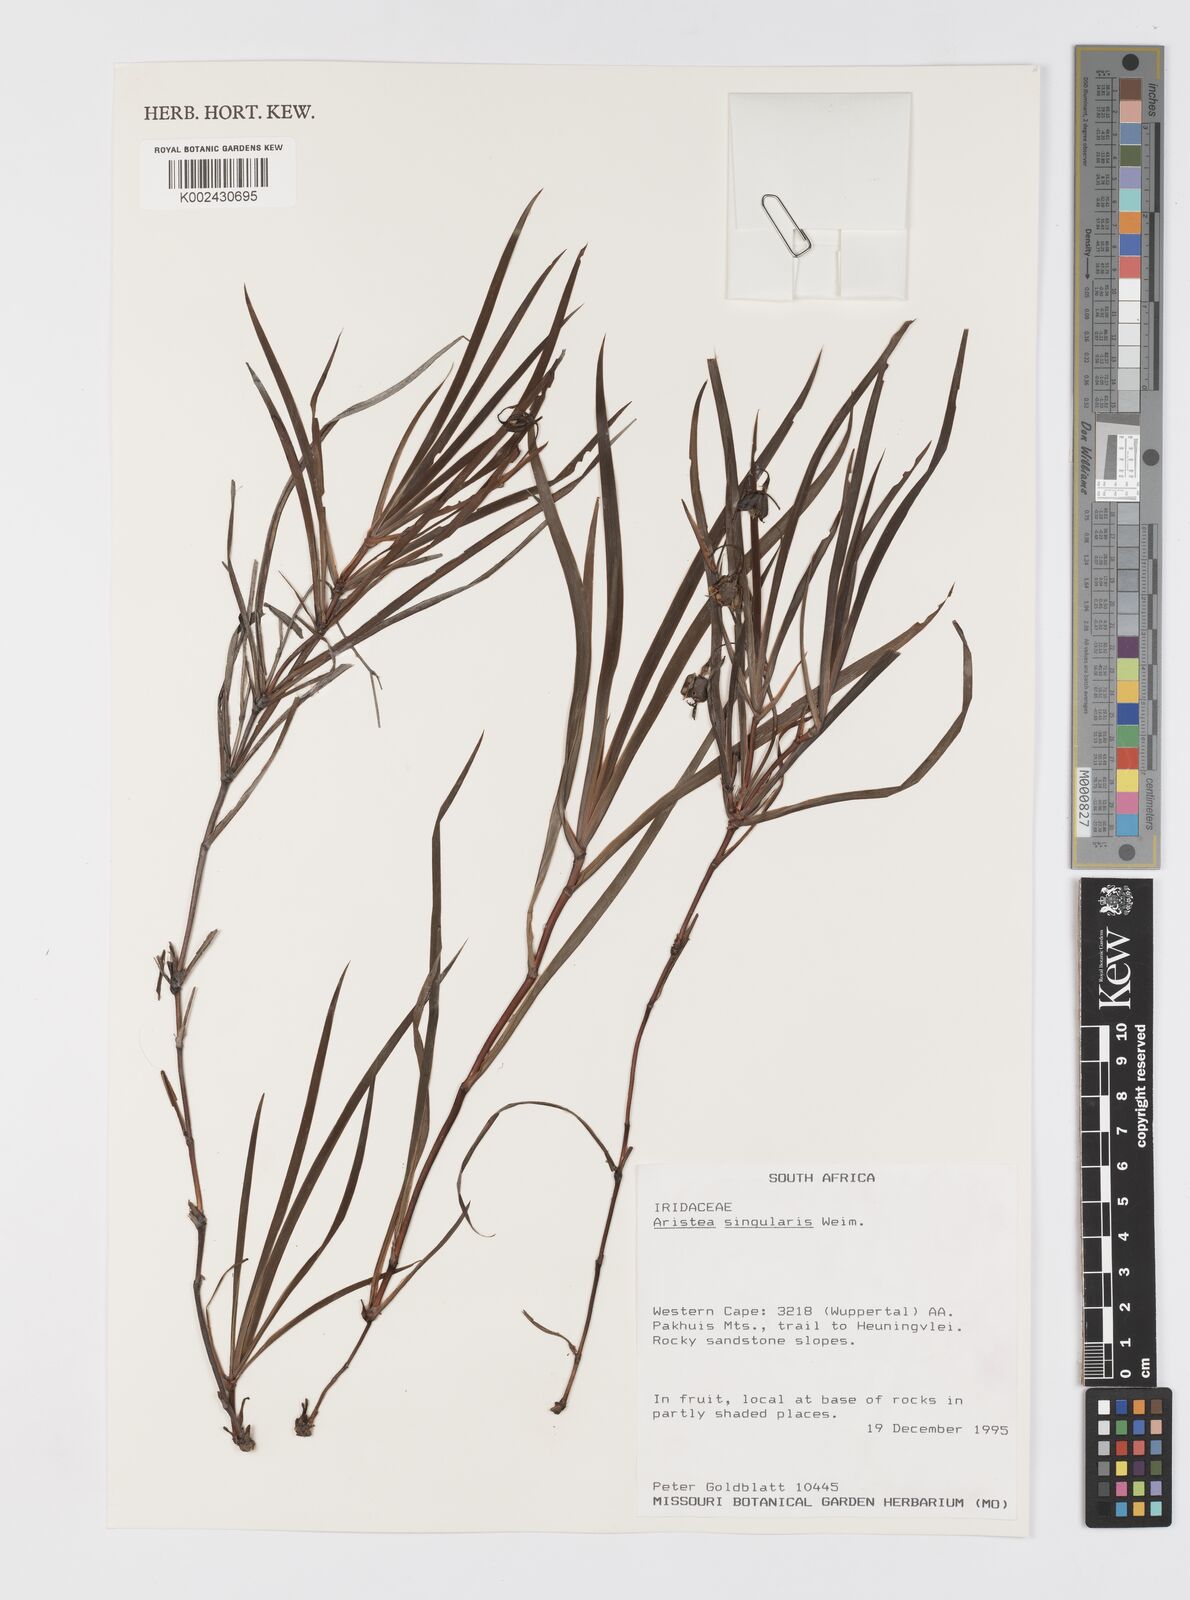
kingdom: Plantae
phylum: Tracheophyta
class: Liliopsida
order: Asparagales
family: Iridaceae
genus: Aristea
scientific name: Aristea singularis
